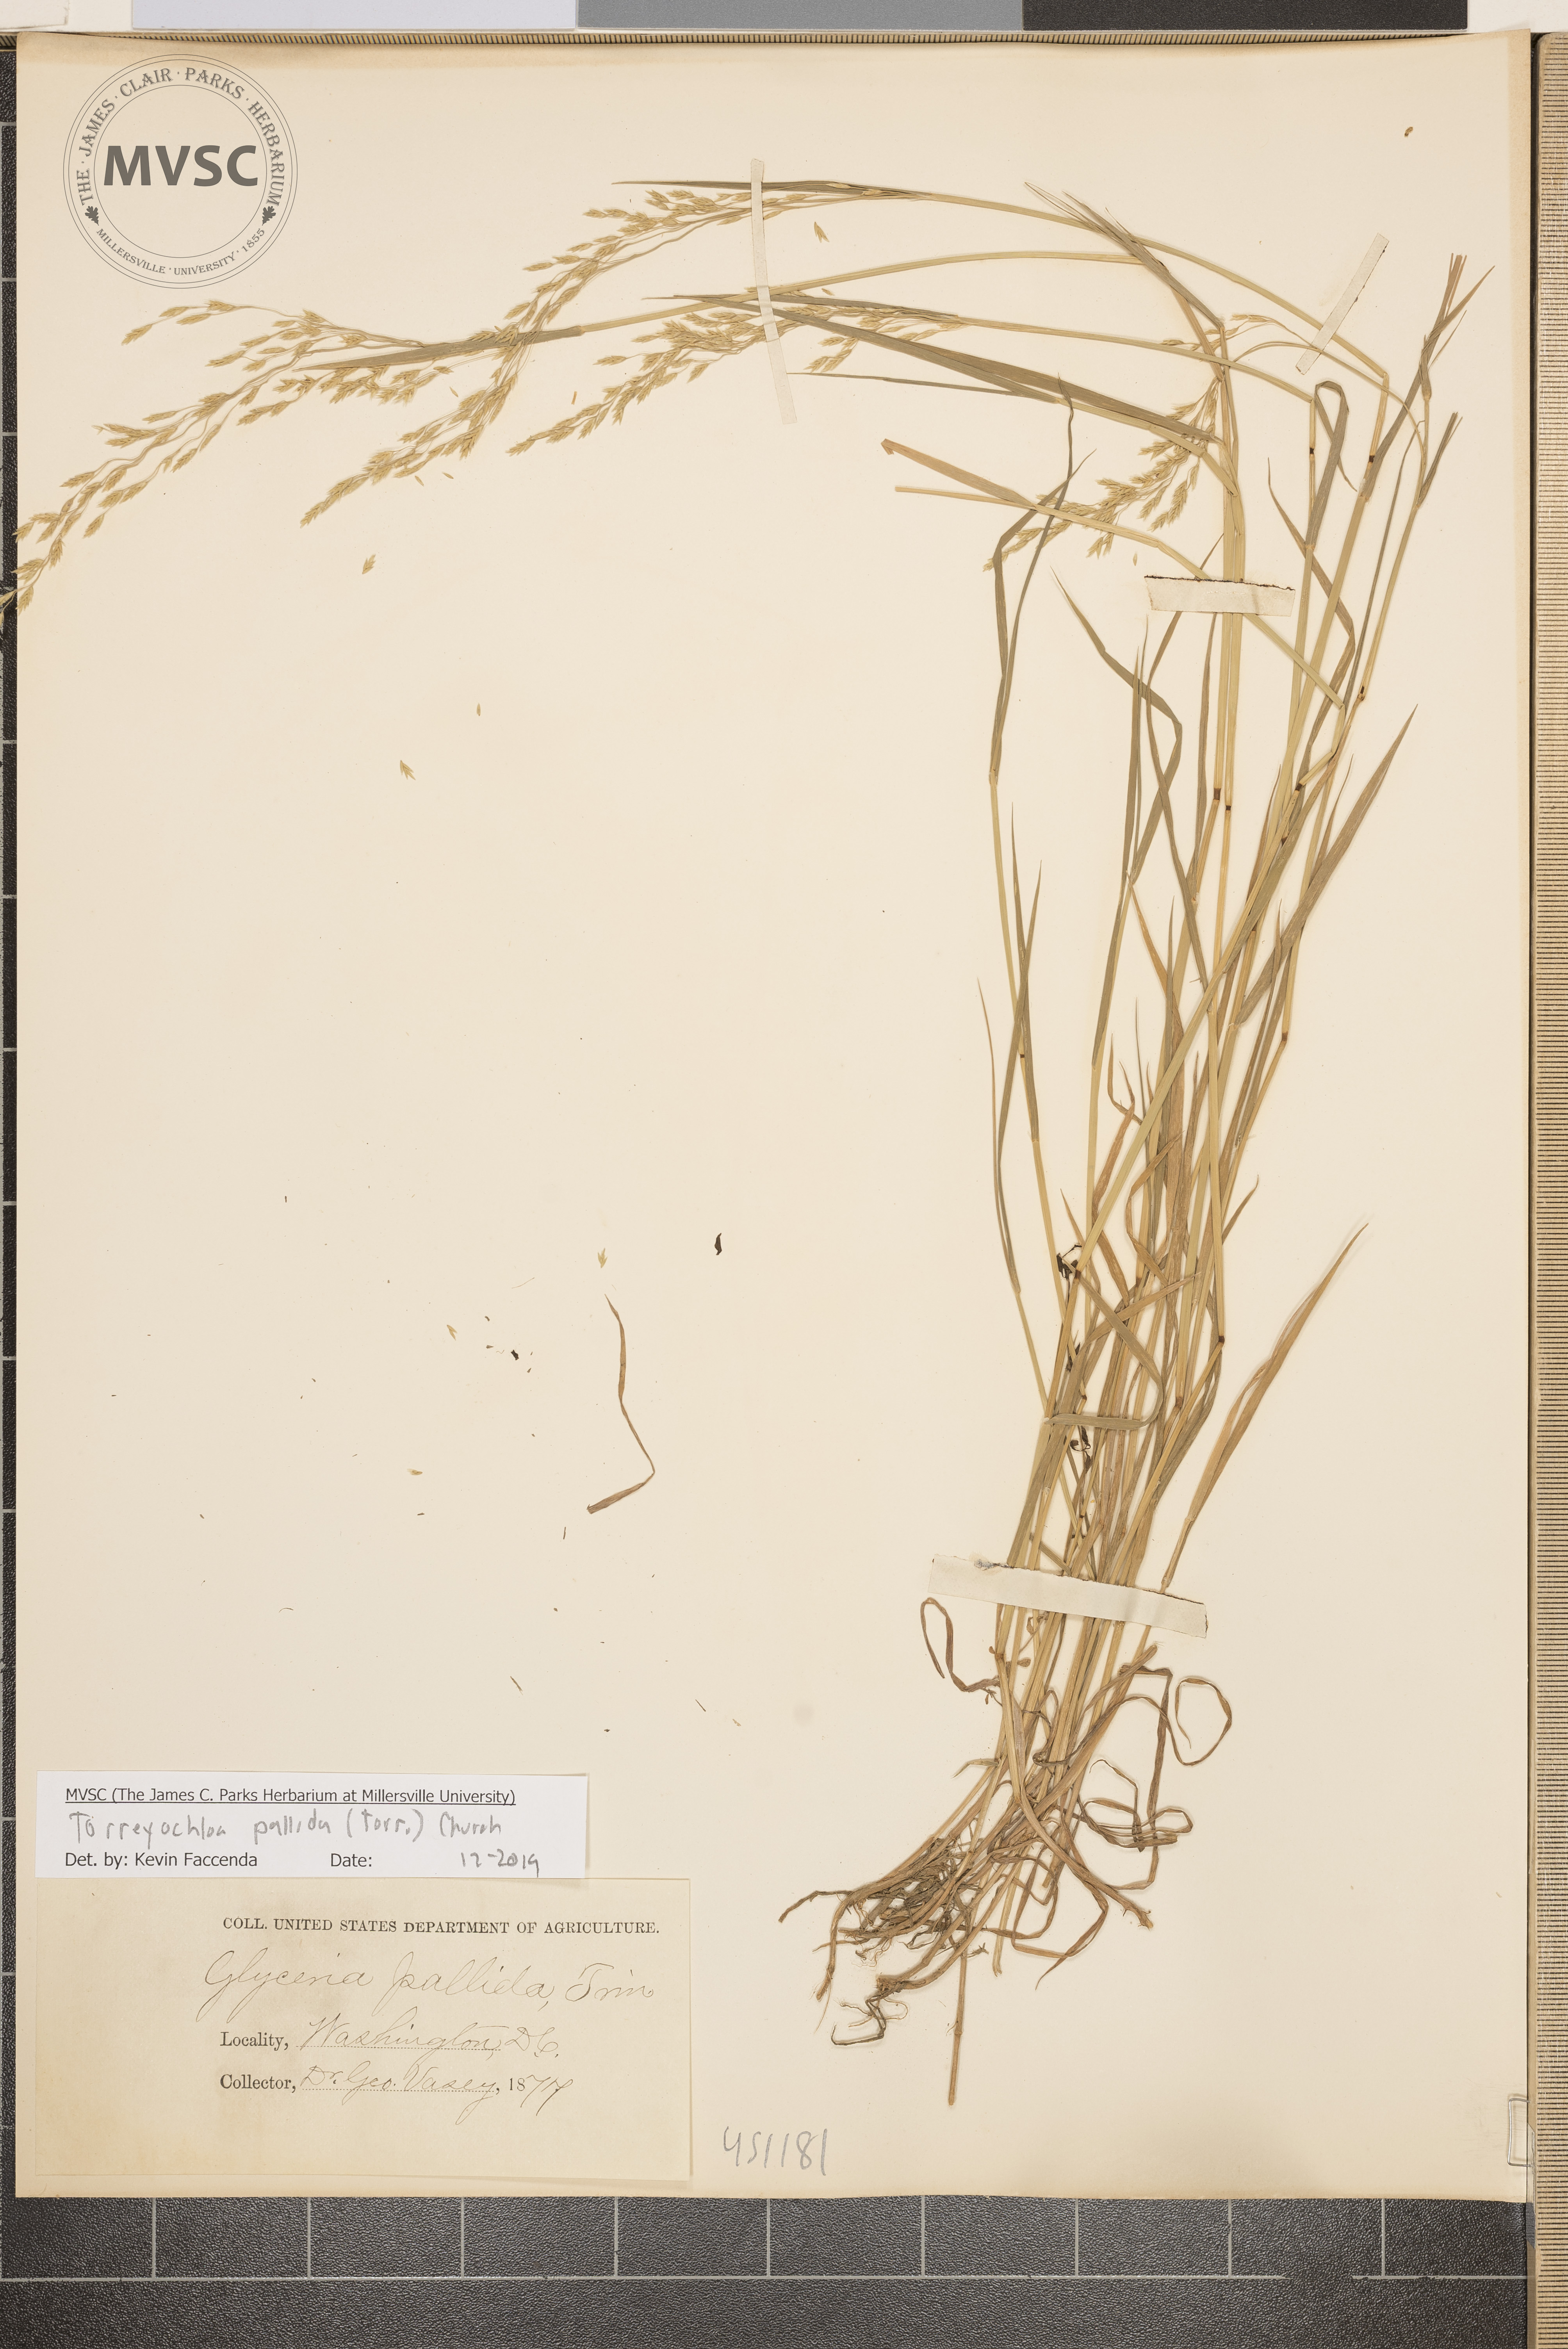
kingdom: Plantae
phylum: Tracheophyta
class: Liliopsida
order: Poales
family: Poaceae
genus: Torreyochloa
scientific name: Torreyochloa pallida
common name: Pale false mannagrass
